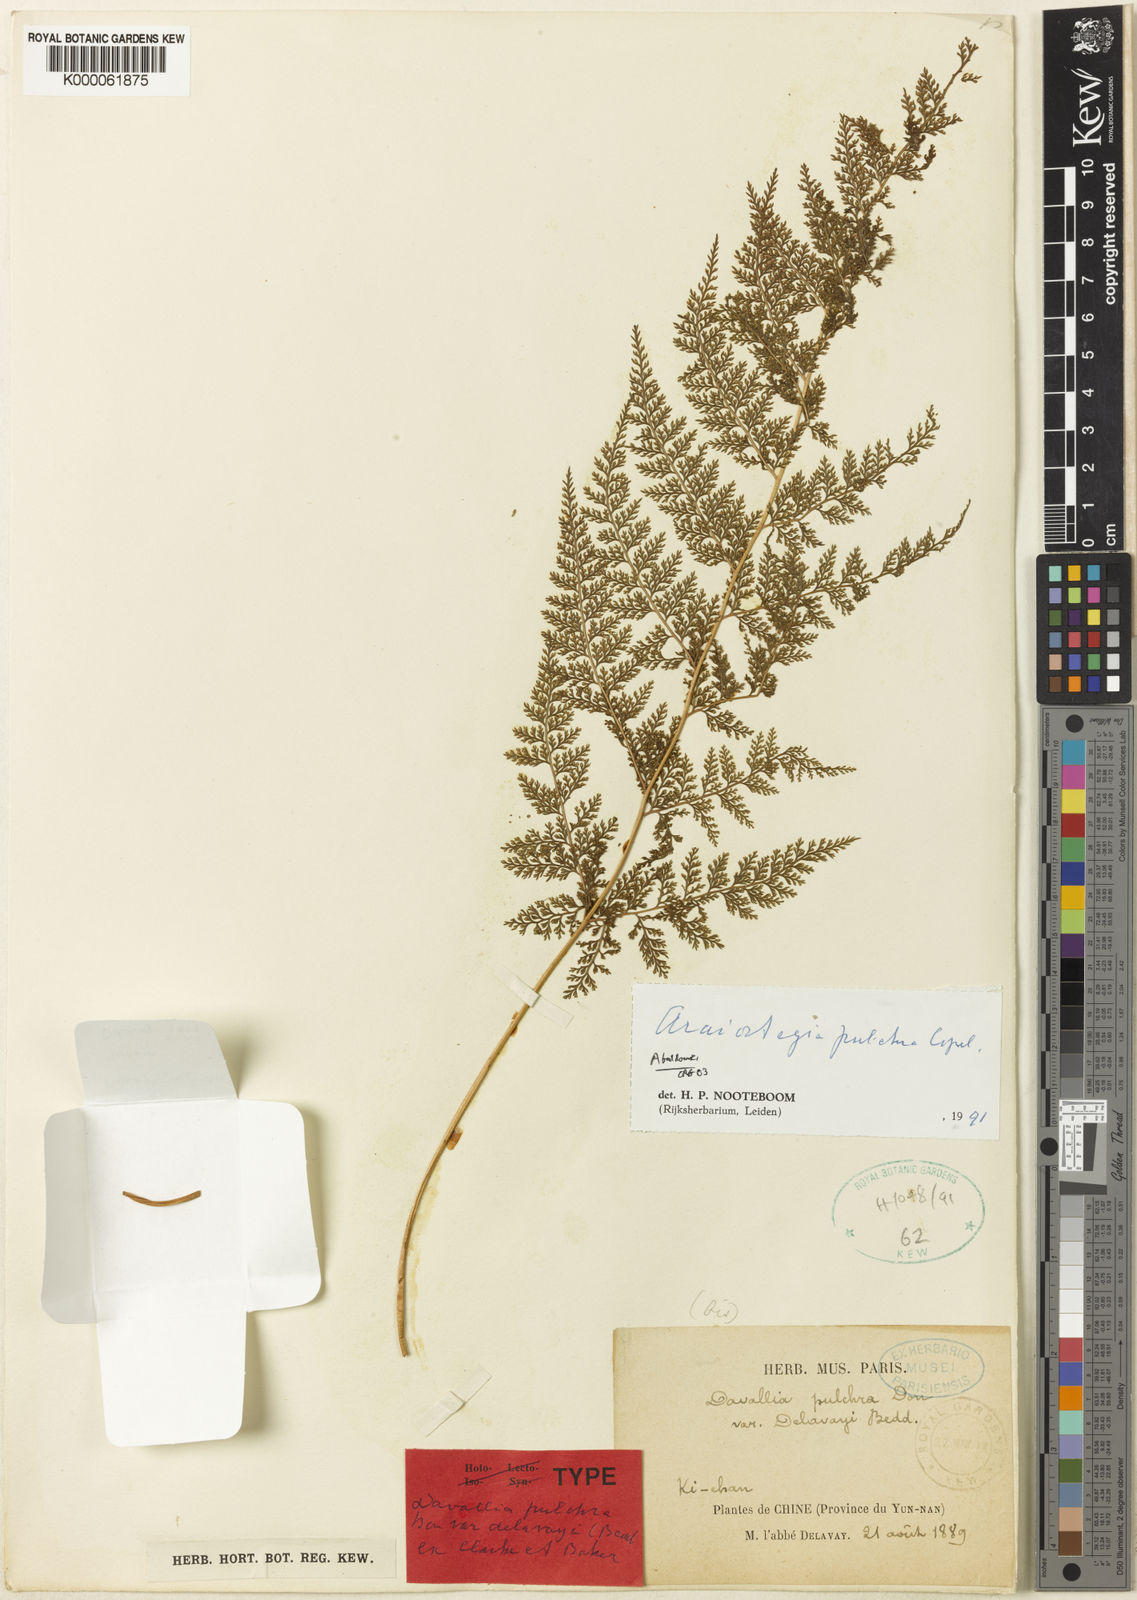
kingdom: Plantae
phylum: Tracheophyta
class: Polypodiopsida
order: Polypodiales
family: Davalliaceae
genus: Davallodes
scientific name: Davallodes beddomei
